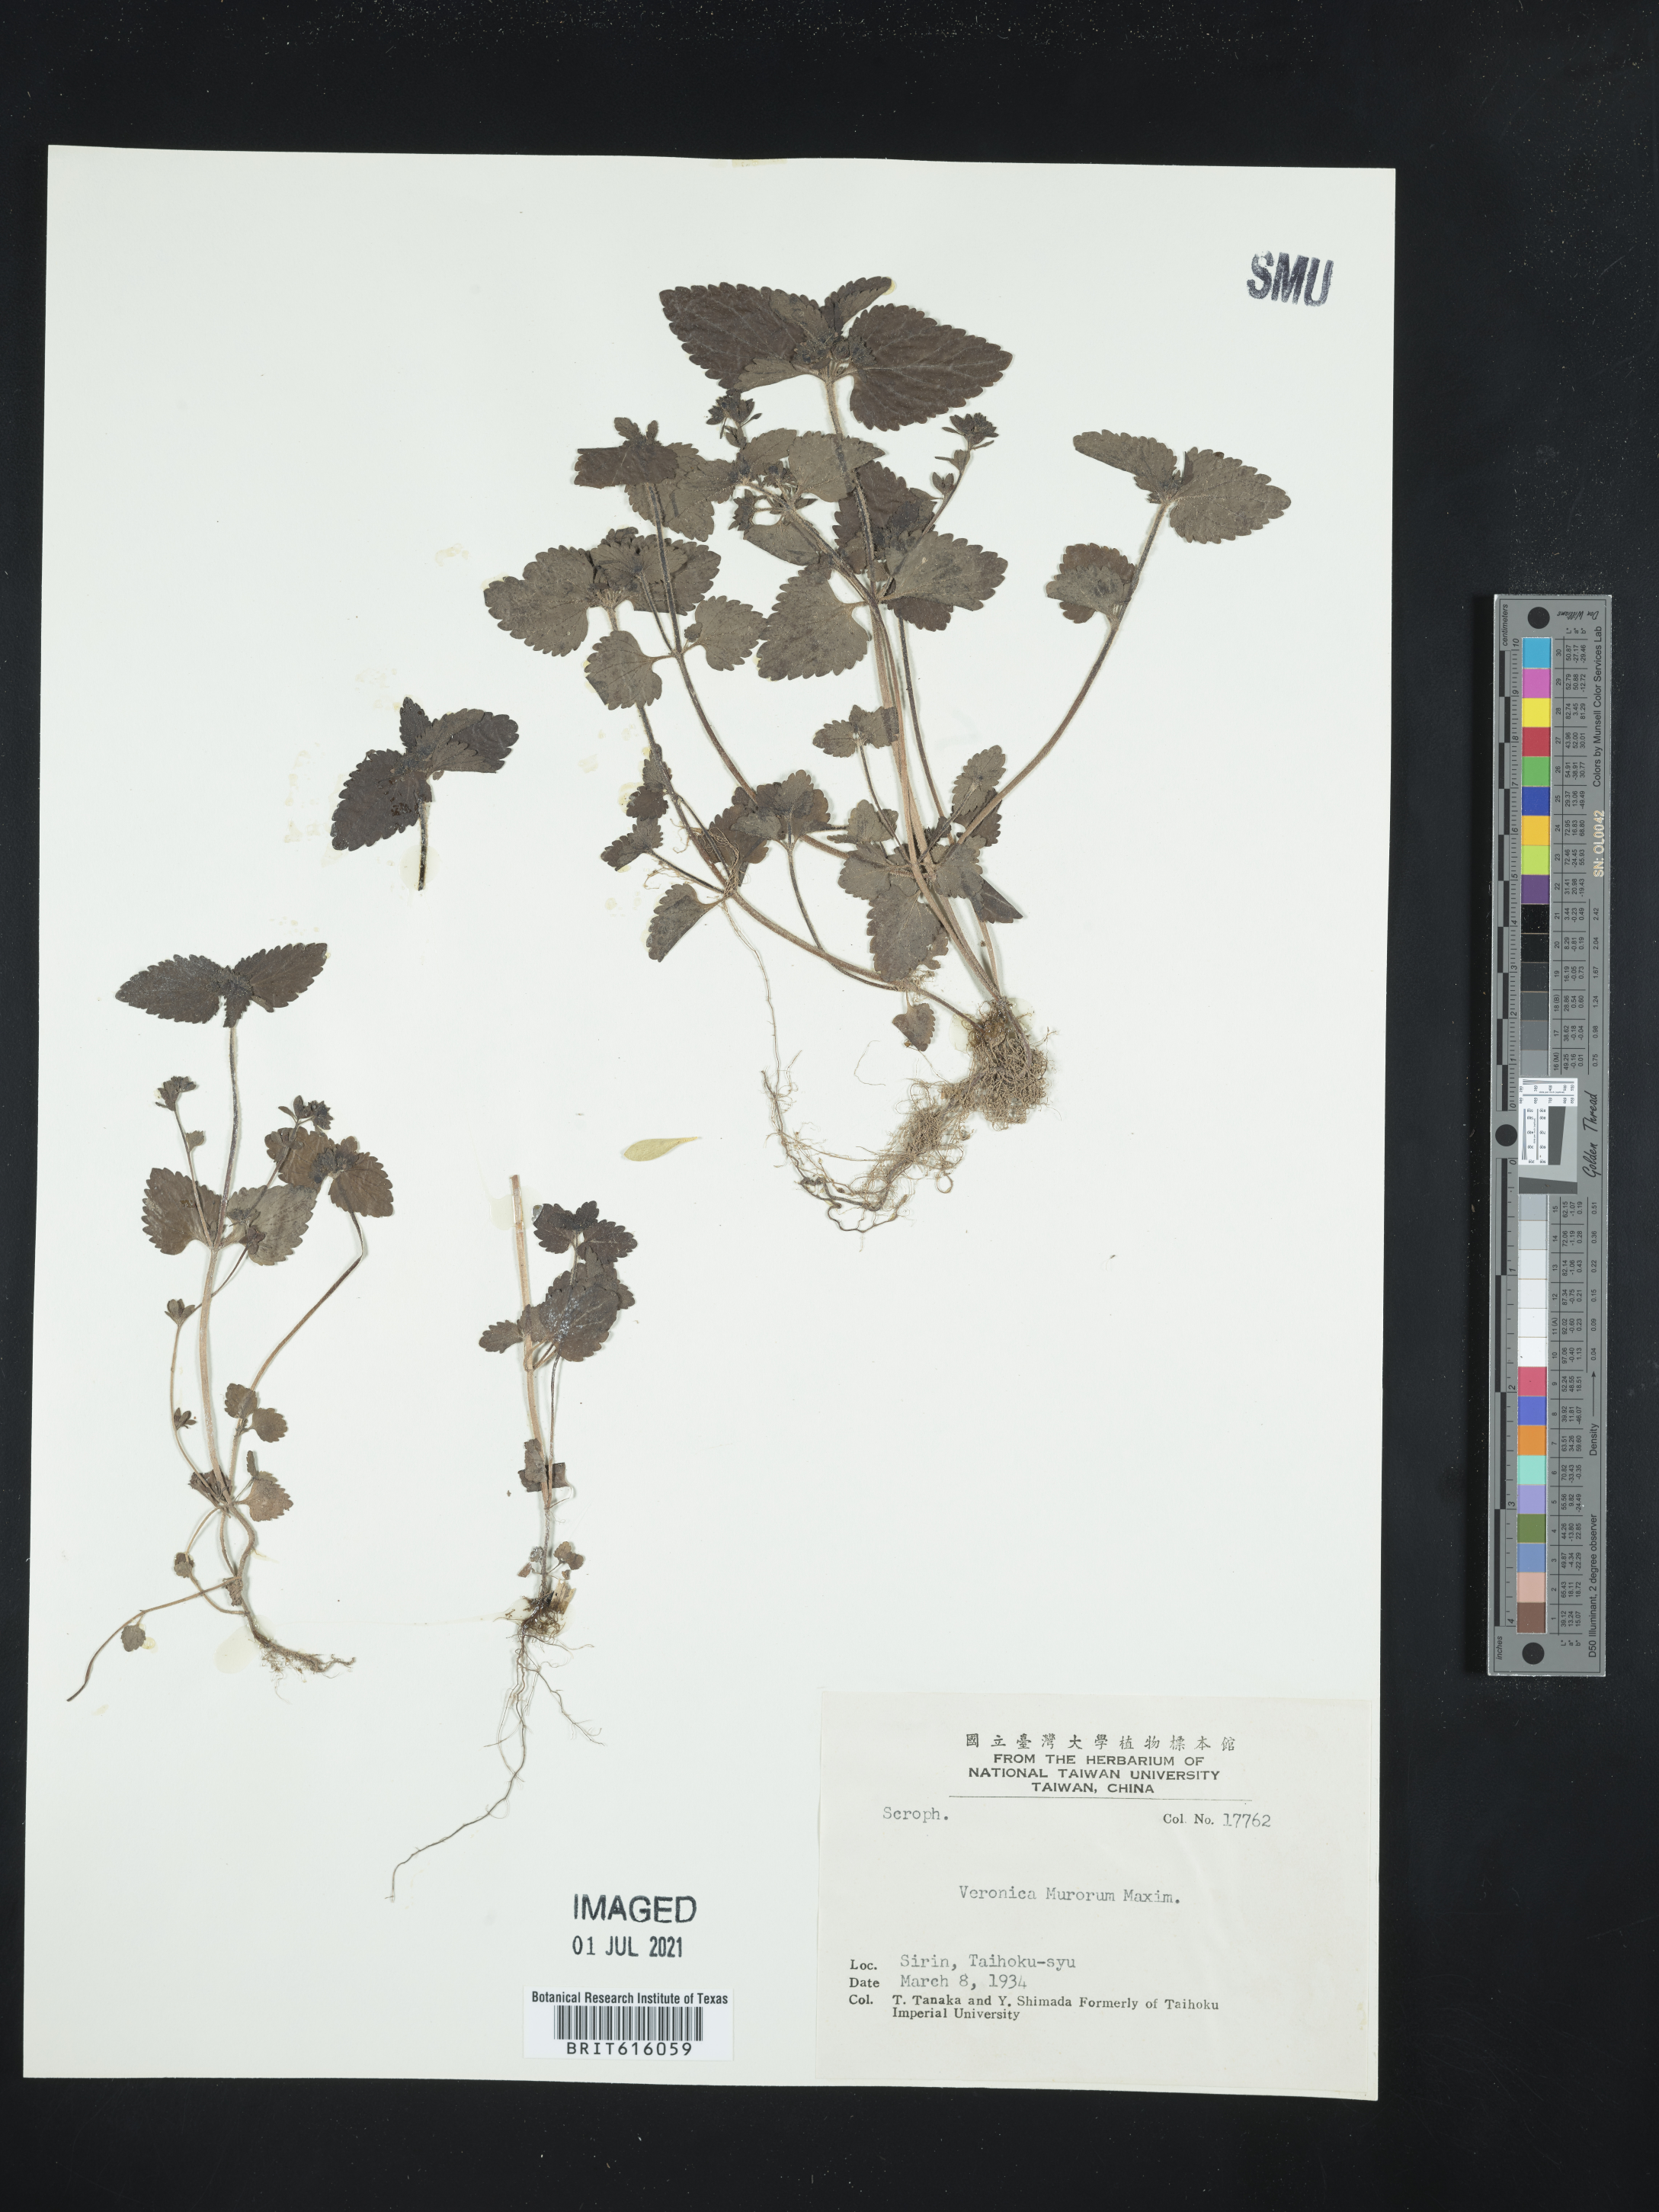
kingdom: Plantae
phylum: Tracheophyta
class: Magnoliopsida
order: Lamiales
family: Plantaginaceae
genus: Veronica
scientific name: Veronica javanica
